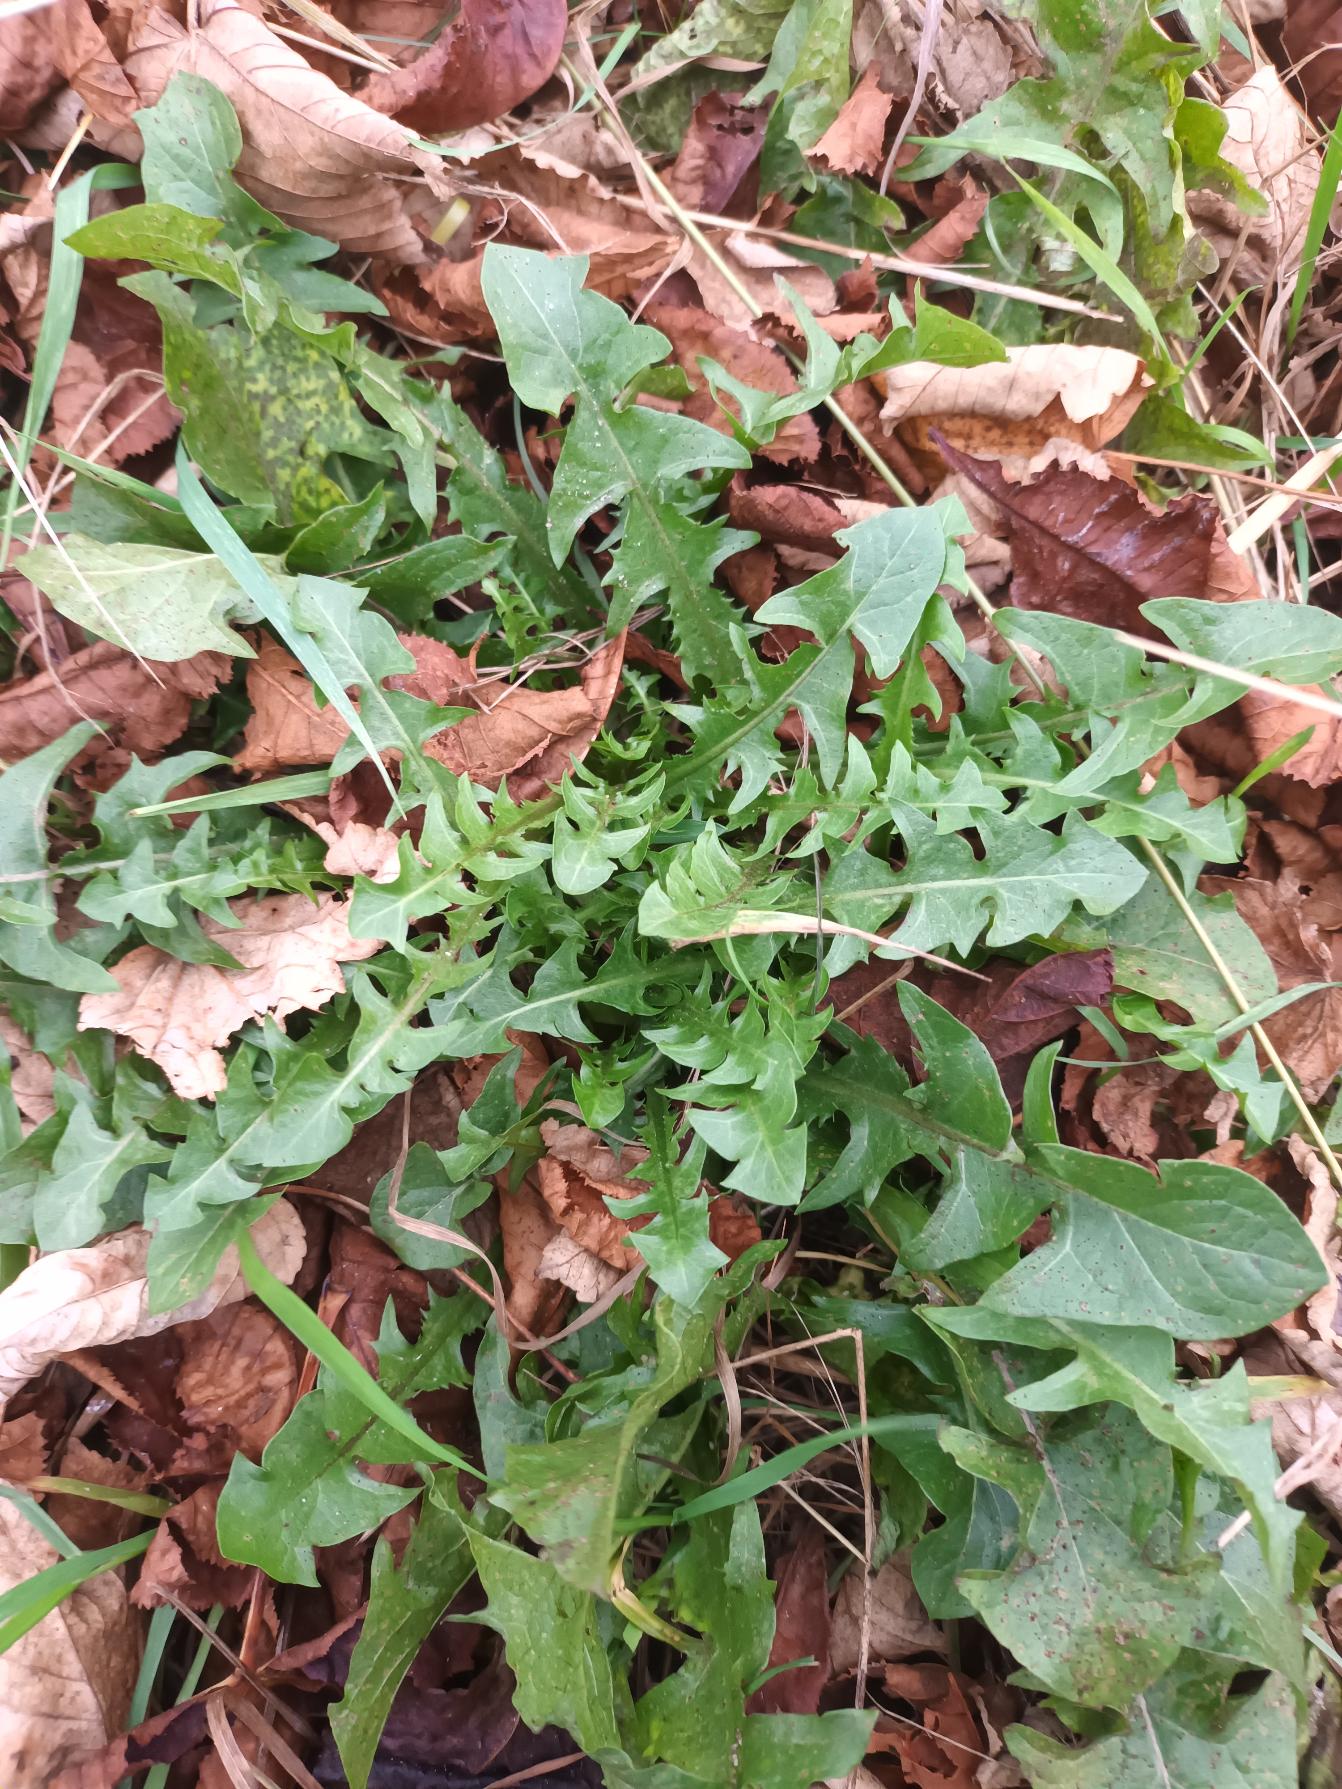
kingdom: Plantae
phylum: Tracheophyta
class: Magnoliopsida
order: Asterales
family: Asteraceae
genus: Taraxacum
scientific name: Taraxacum
